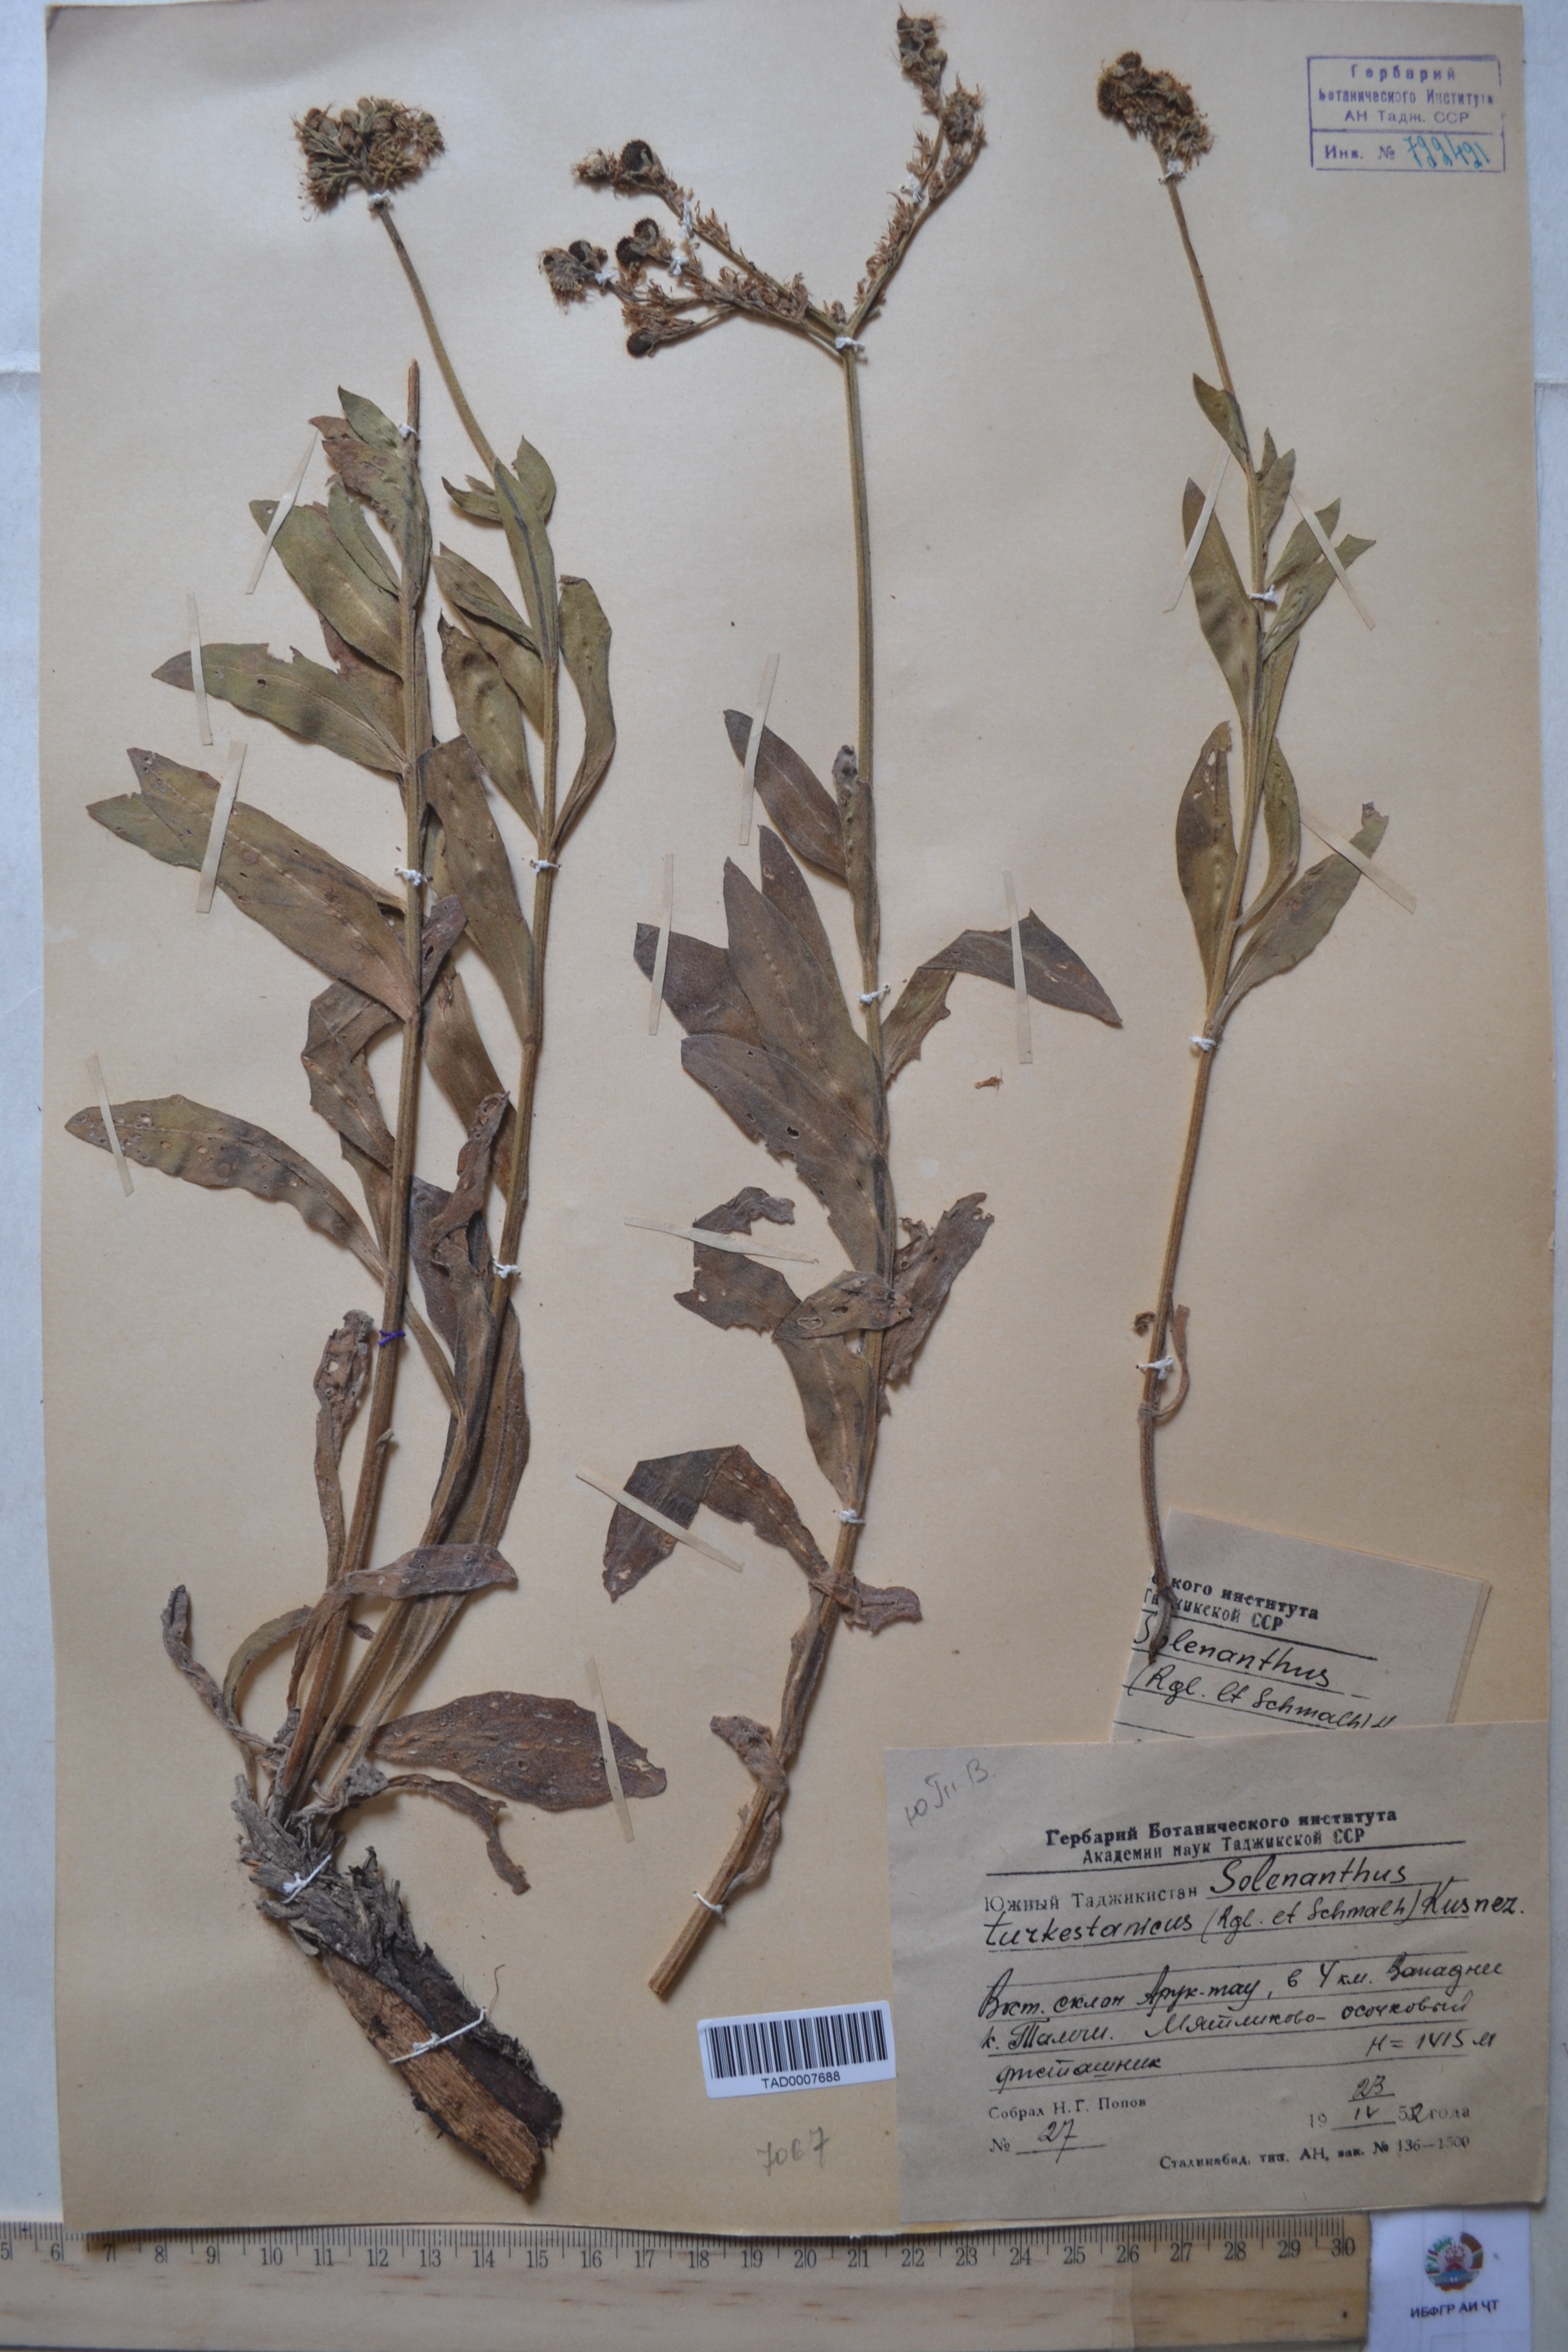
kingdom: Plantae
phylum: Tracheophyta
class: Magnoliopsida
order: Boraginales
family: Boraginaceae
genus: Solenanthus
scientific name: Solenanthus turkestanicus
